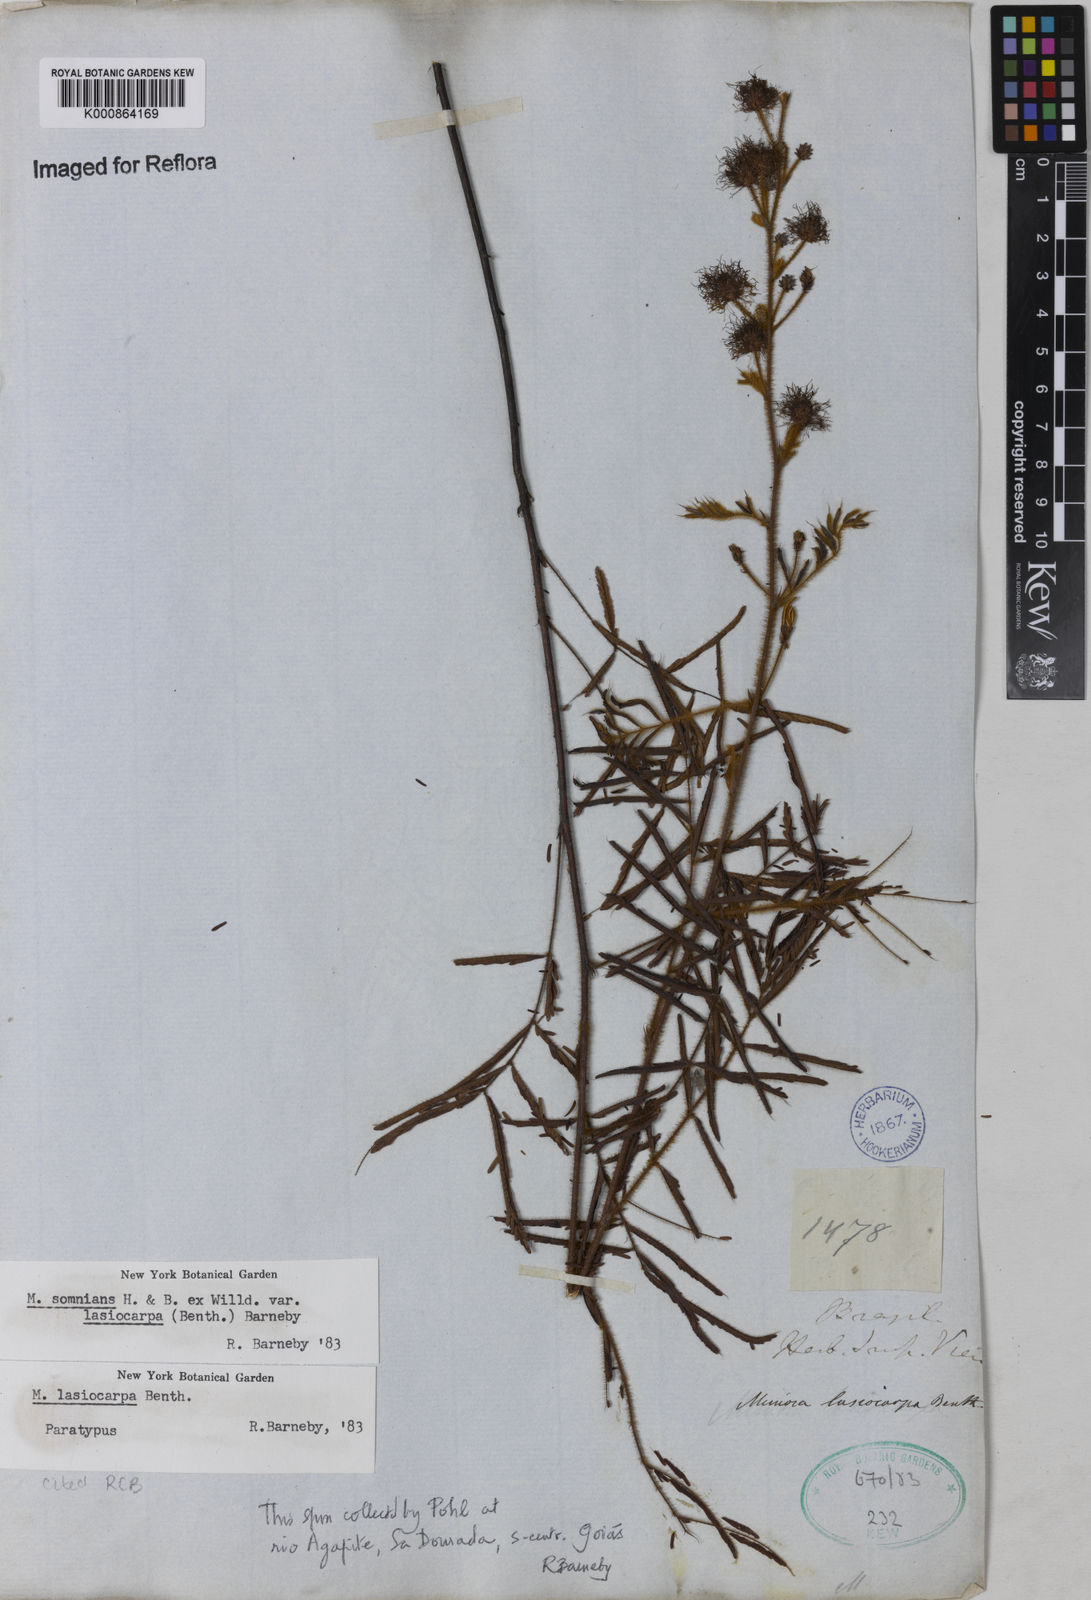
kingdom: Plantae
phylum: Tracheophyta
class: Magnoliopsida
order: Fabales
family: Fabaceae
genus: Mimosa
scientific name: Mimosa somnians
